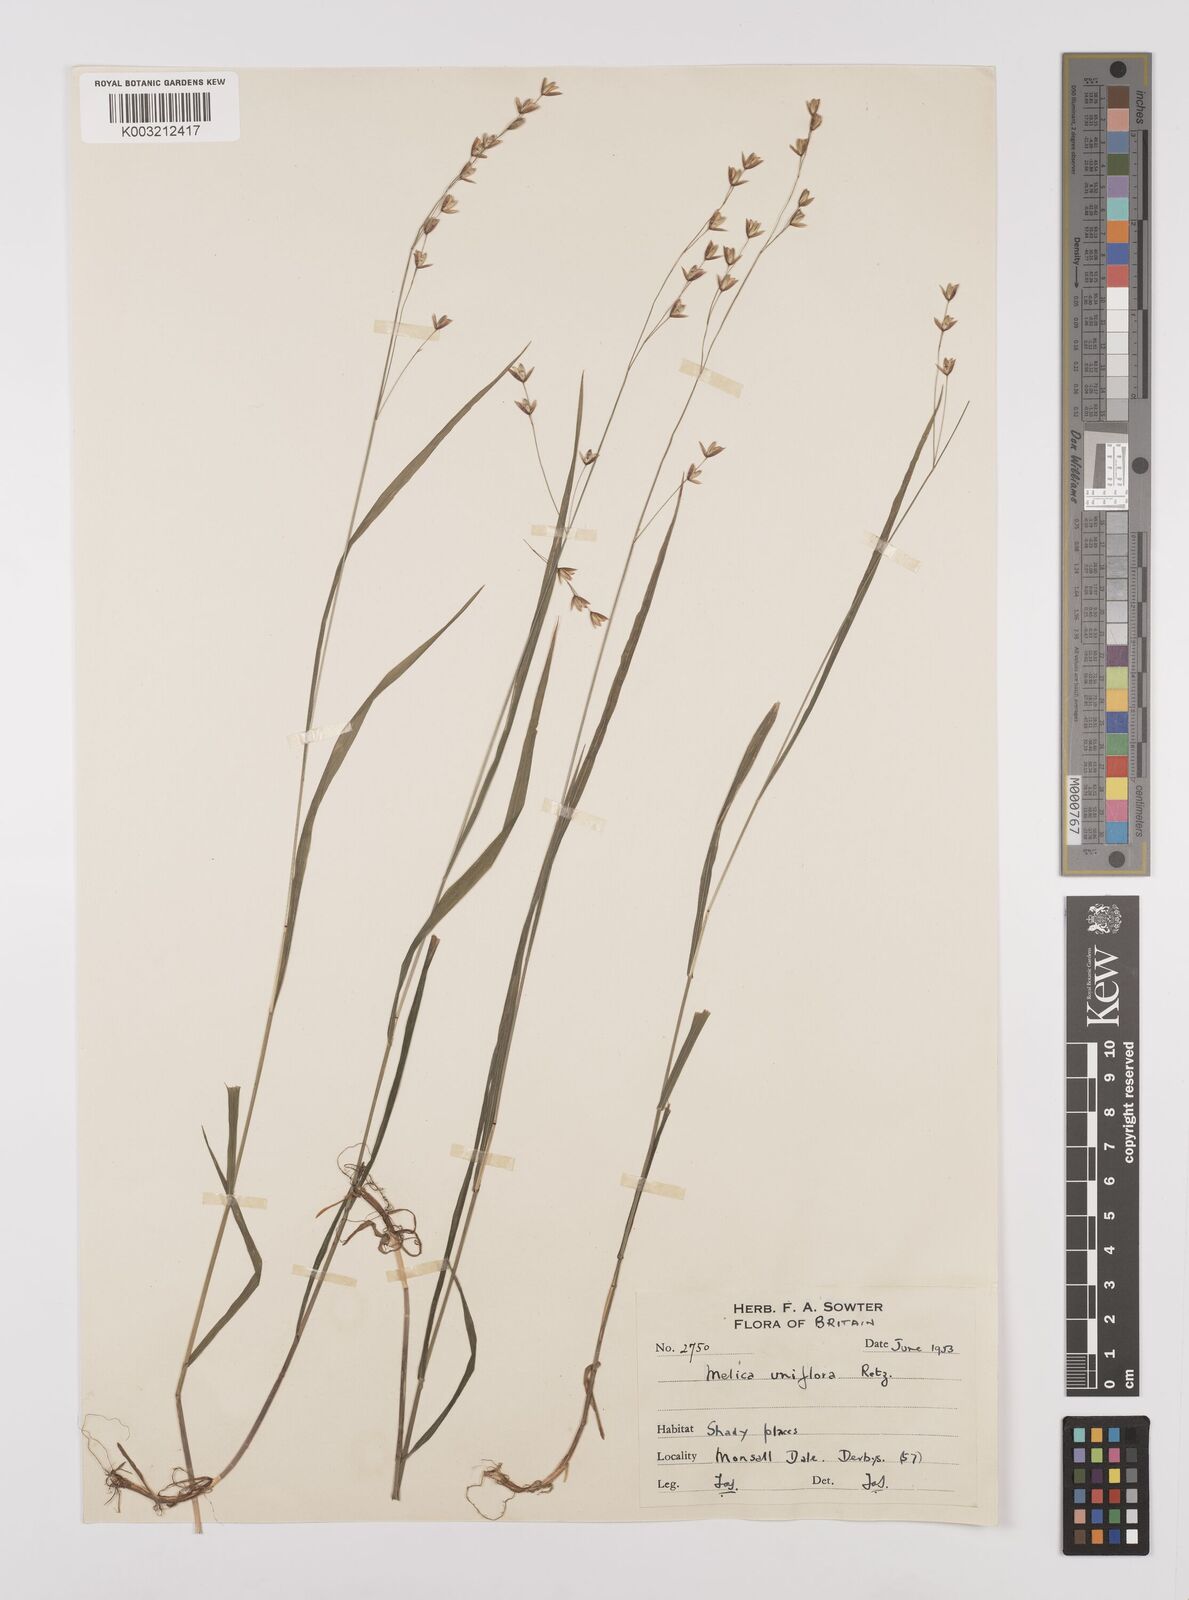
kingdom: Plantae
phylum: Tracheophyta
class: Liliopsida
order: Poales
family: Poaceae
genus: Melica
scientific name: Melica uniflora
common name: Wood melick
